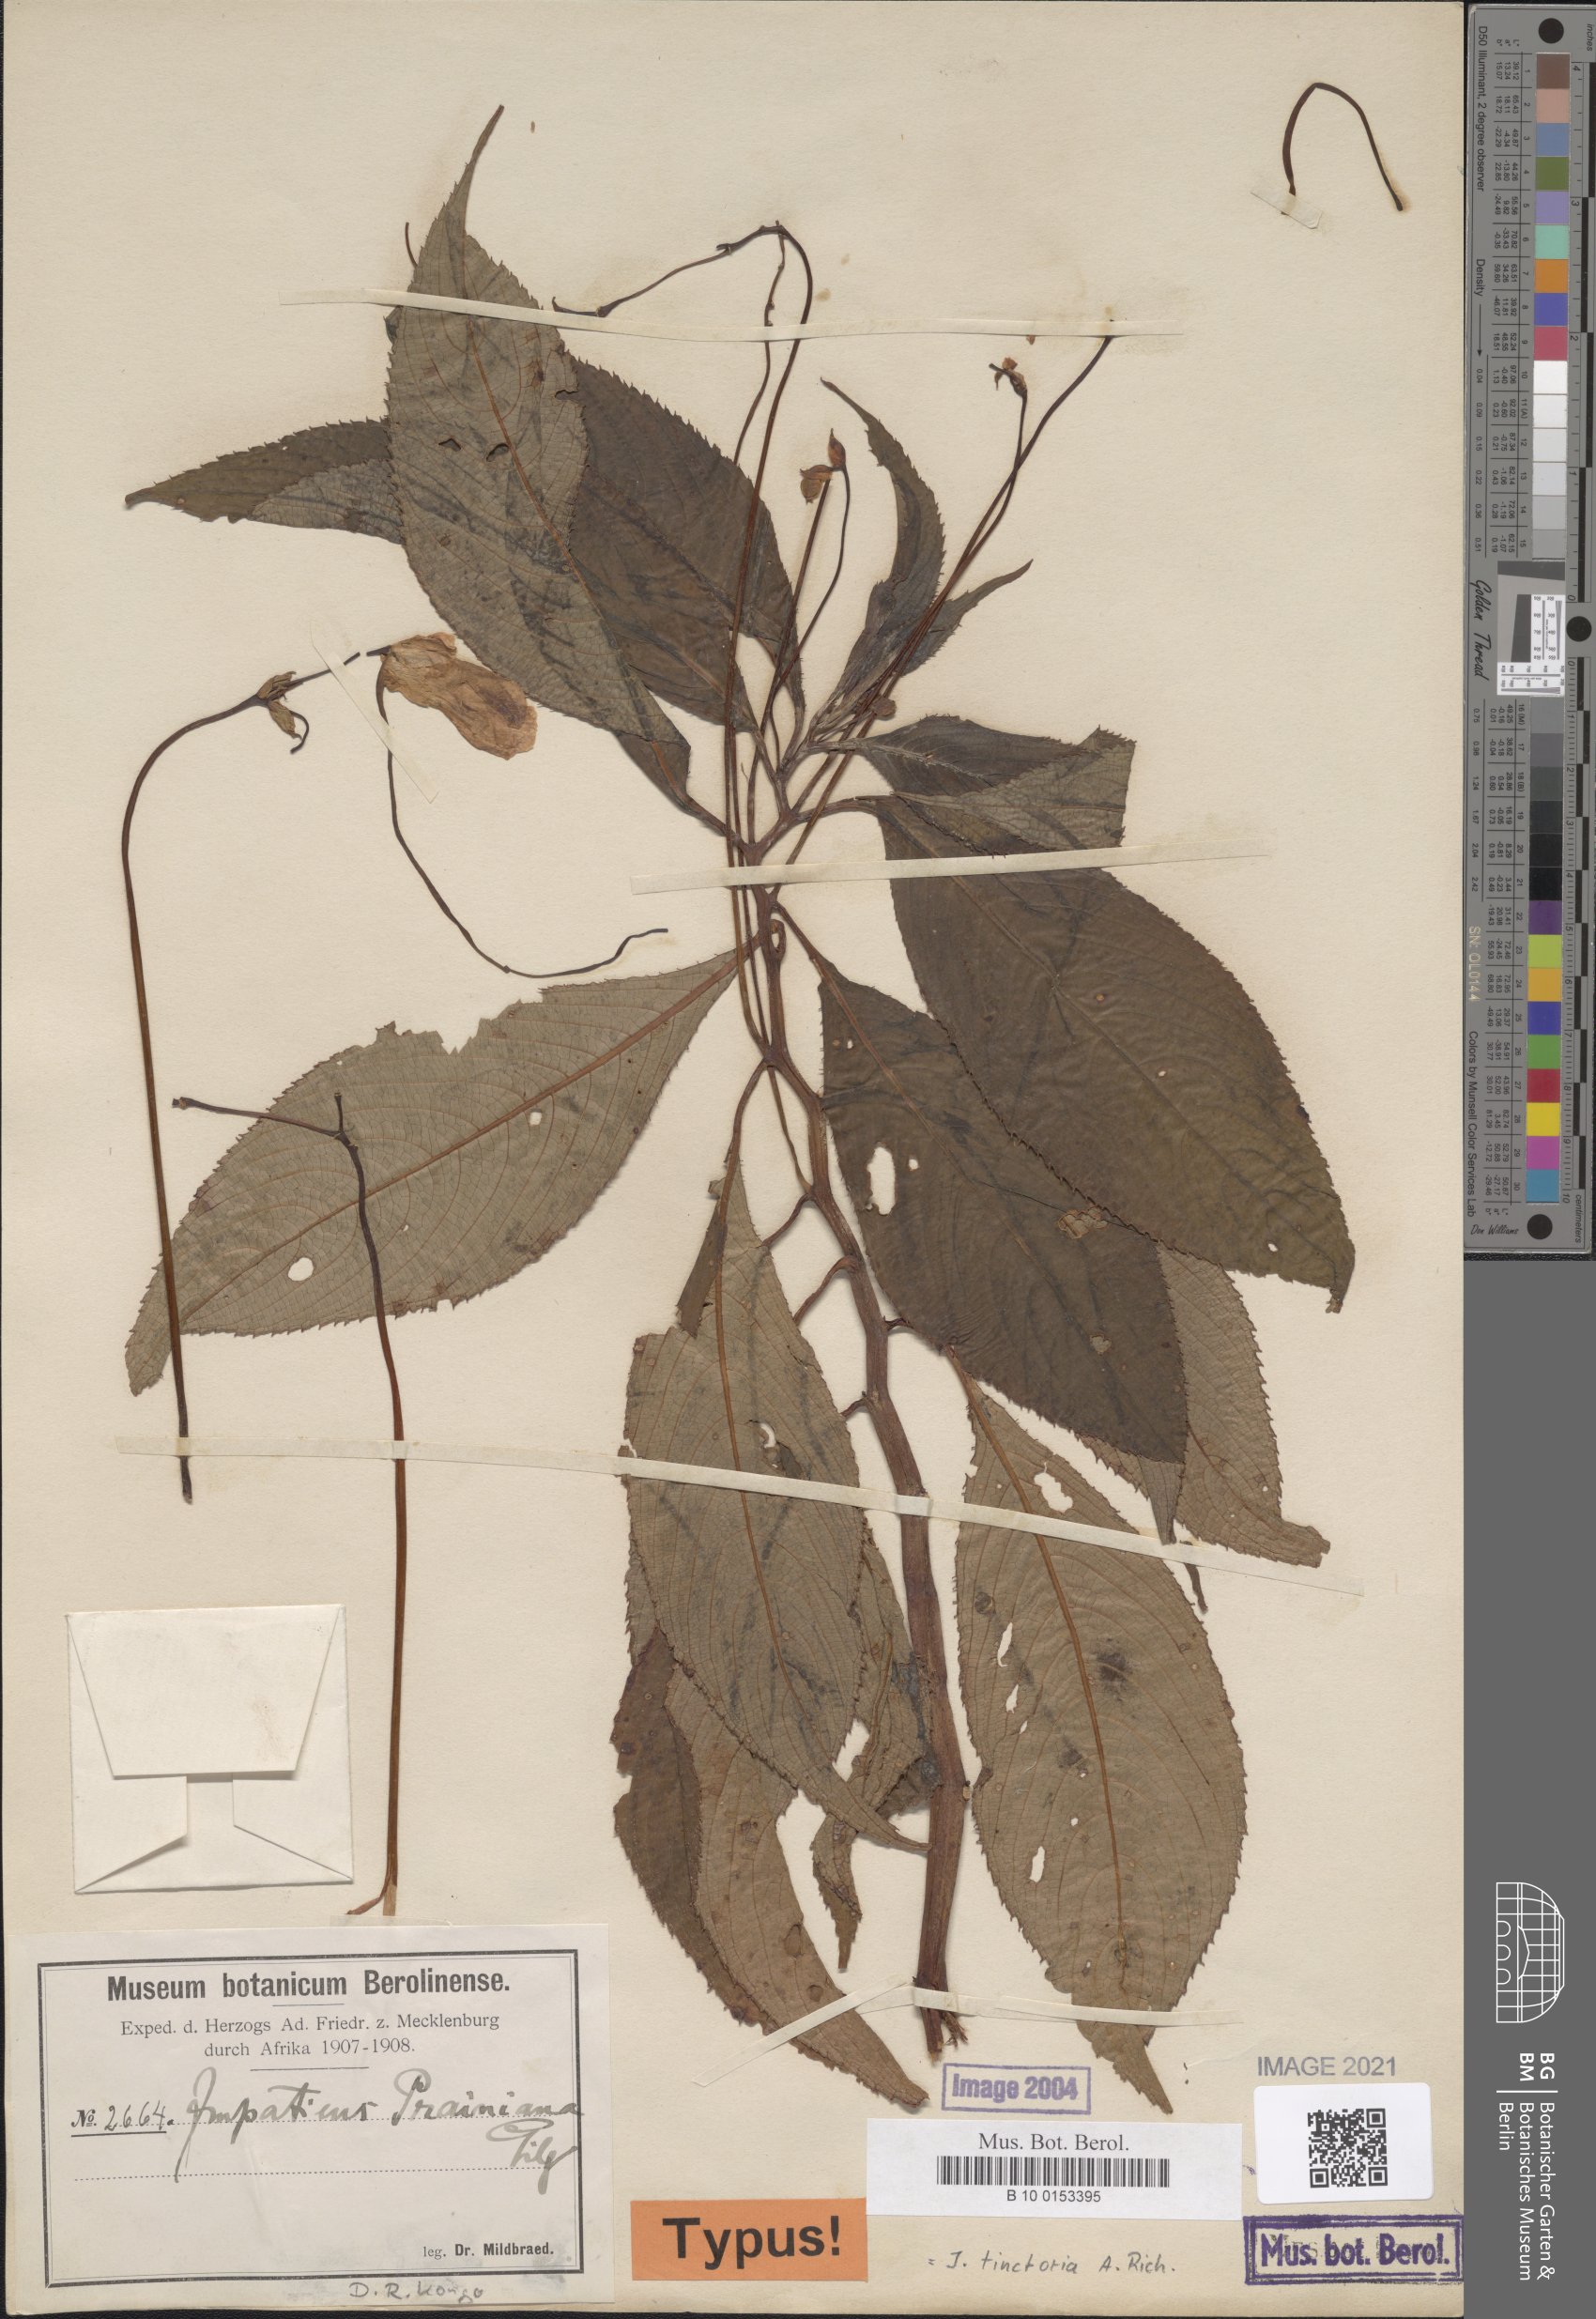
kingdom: Plantae
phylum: Tracheophyta
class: Magnoliopsida
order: Ericales
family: Balsaminaceae
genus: Impatiens
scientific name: Impatiens tinctoria
